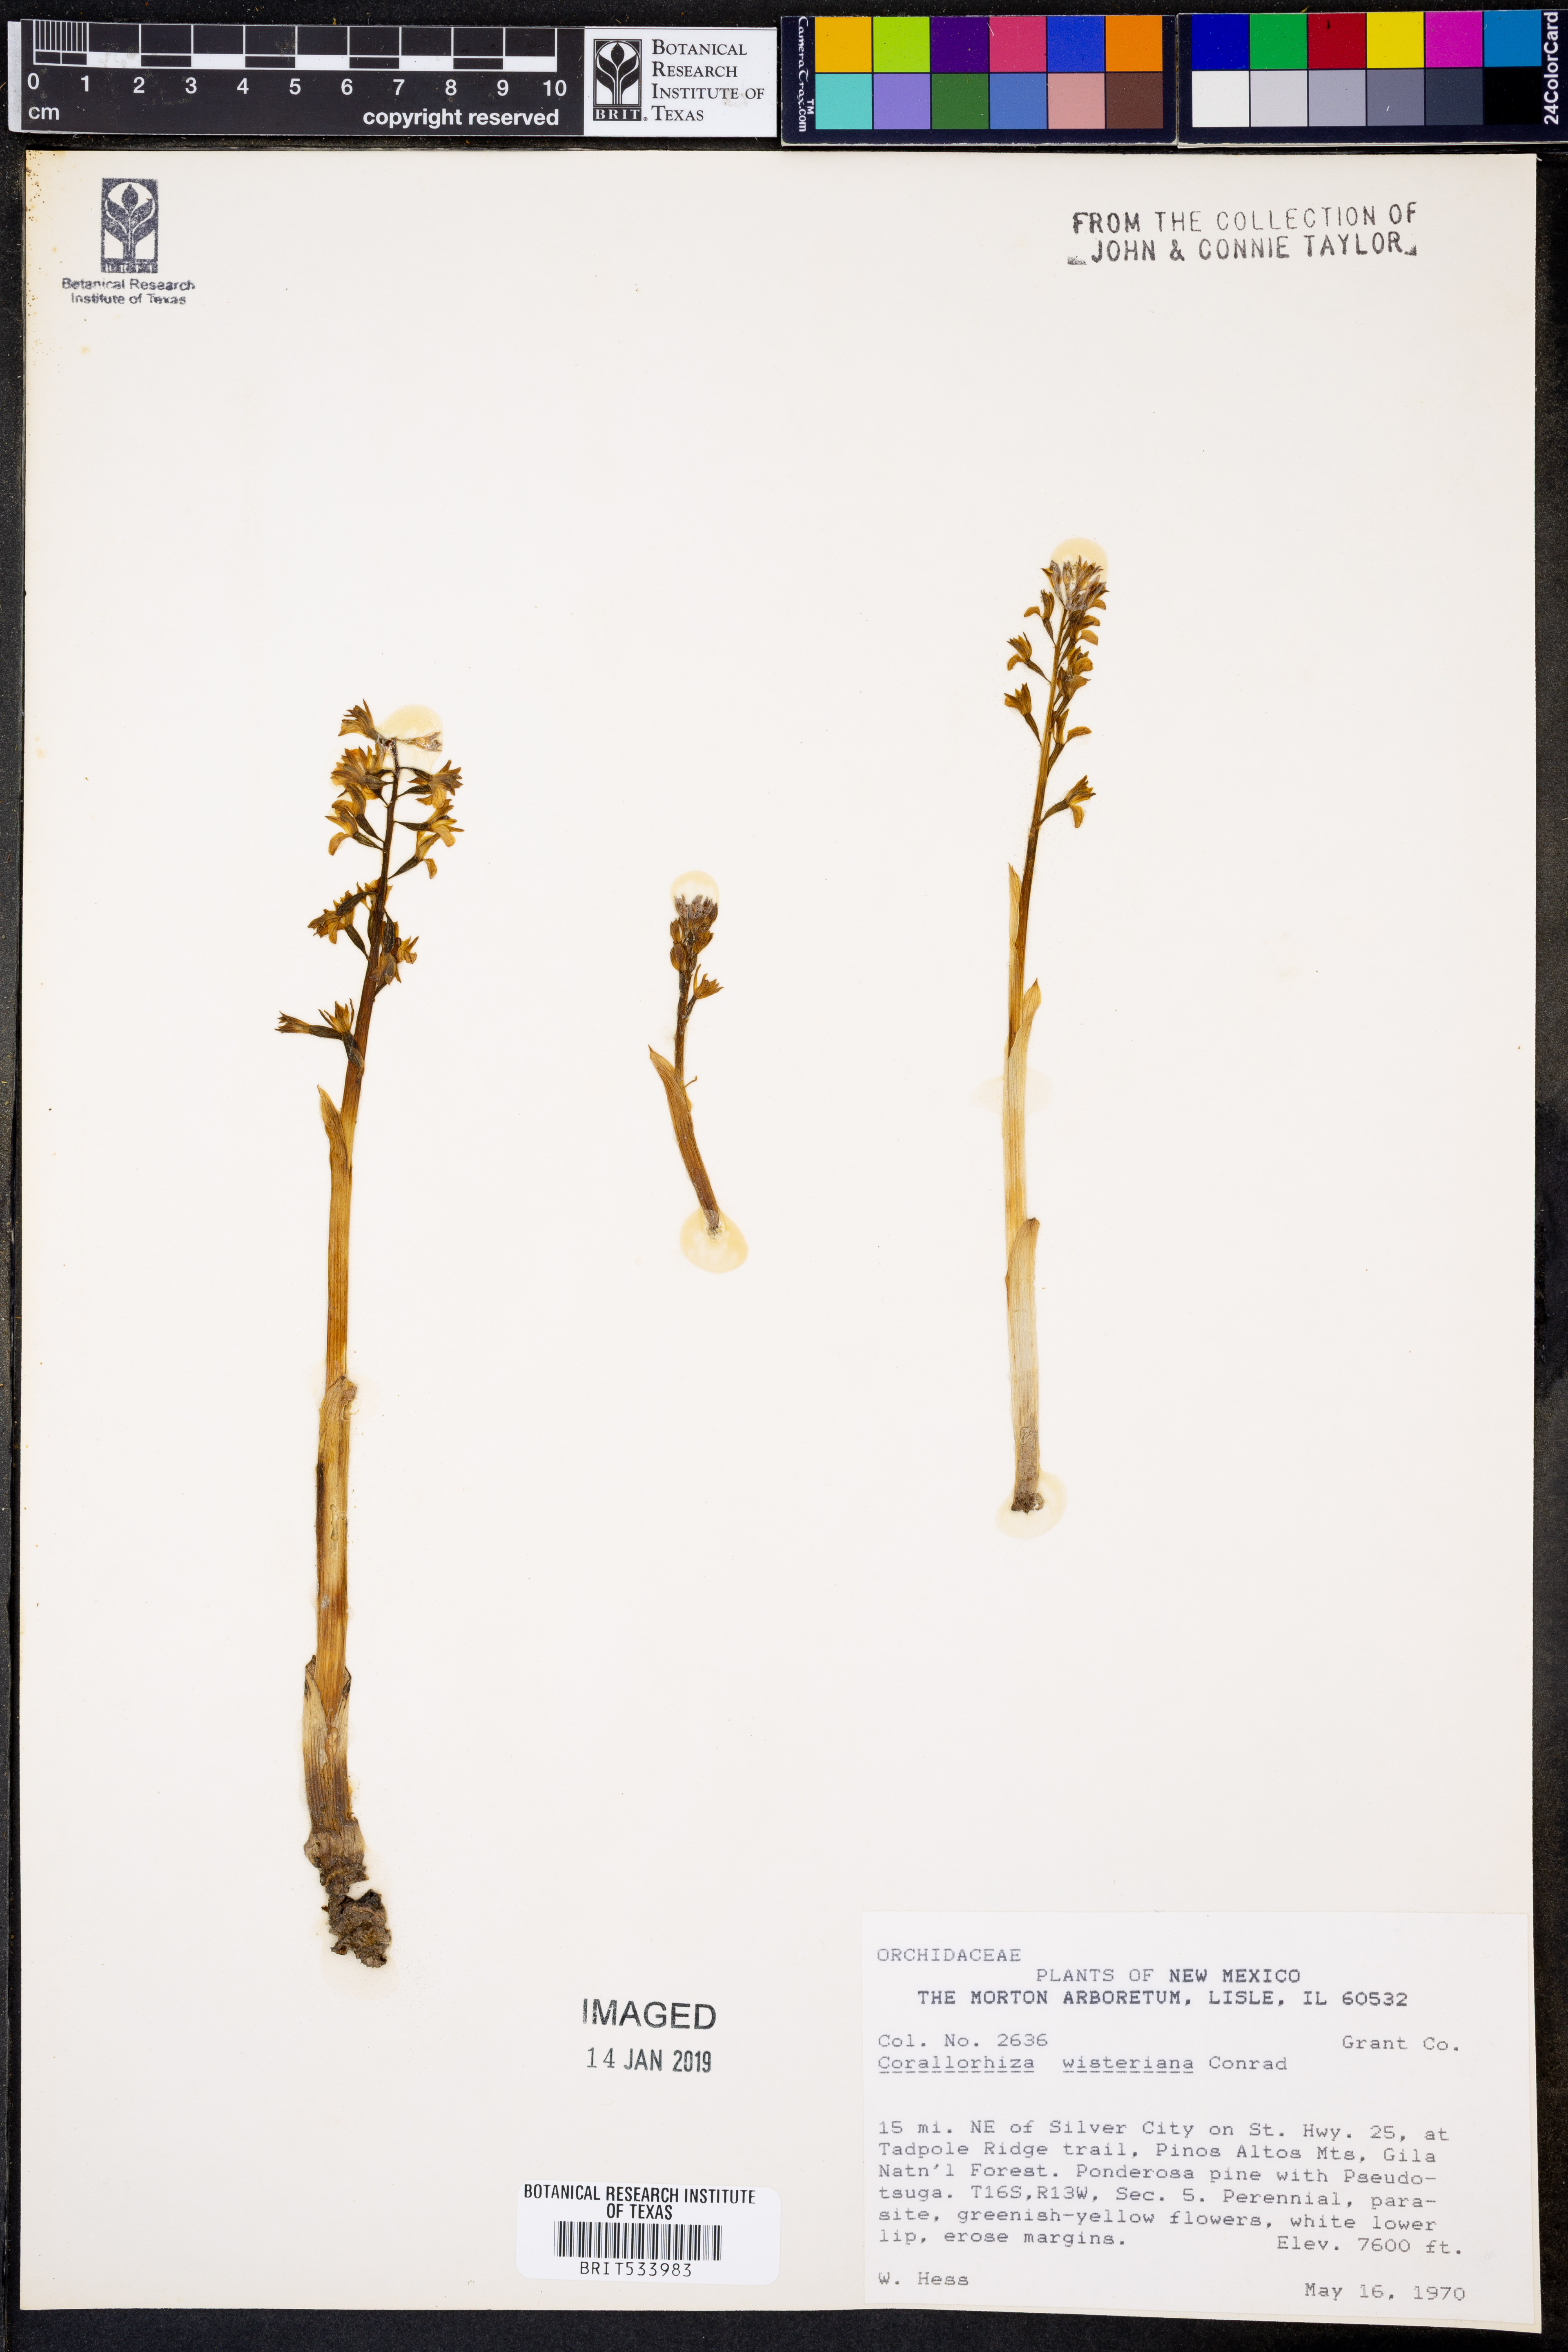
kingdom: Plantae
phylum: Tracheophyta
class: Liliopsida
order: Asparagales
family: Orchidaceae
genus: Corallorhiza
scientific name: Corallorhiza wisteriana
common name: Spring coralroot
